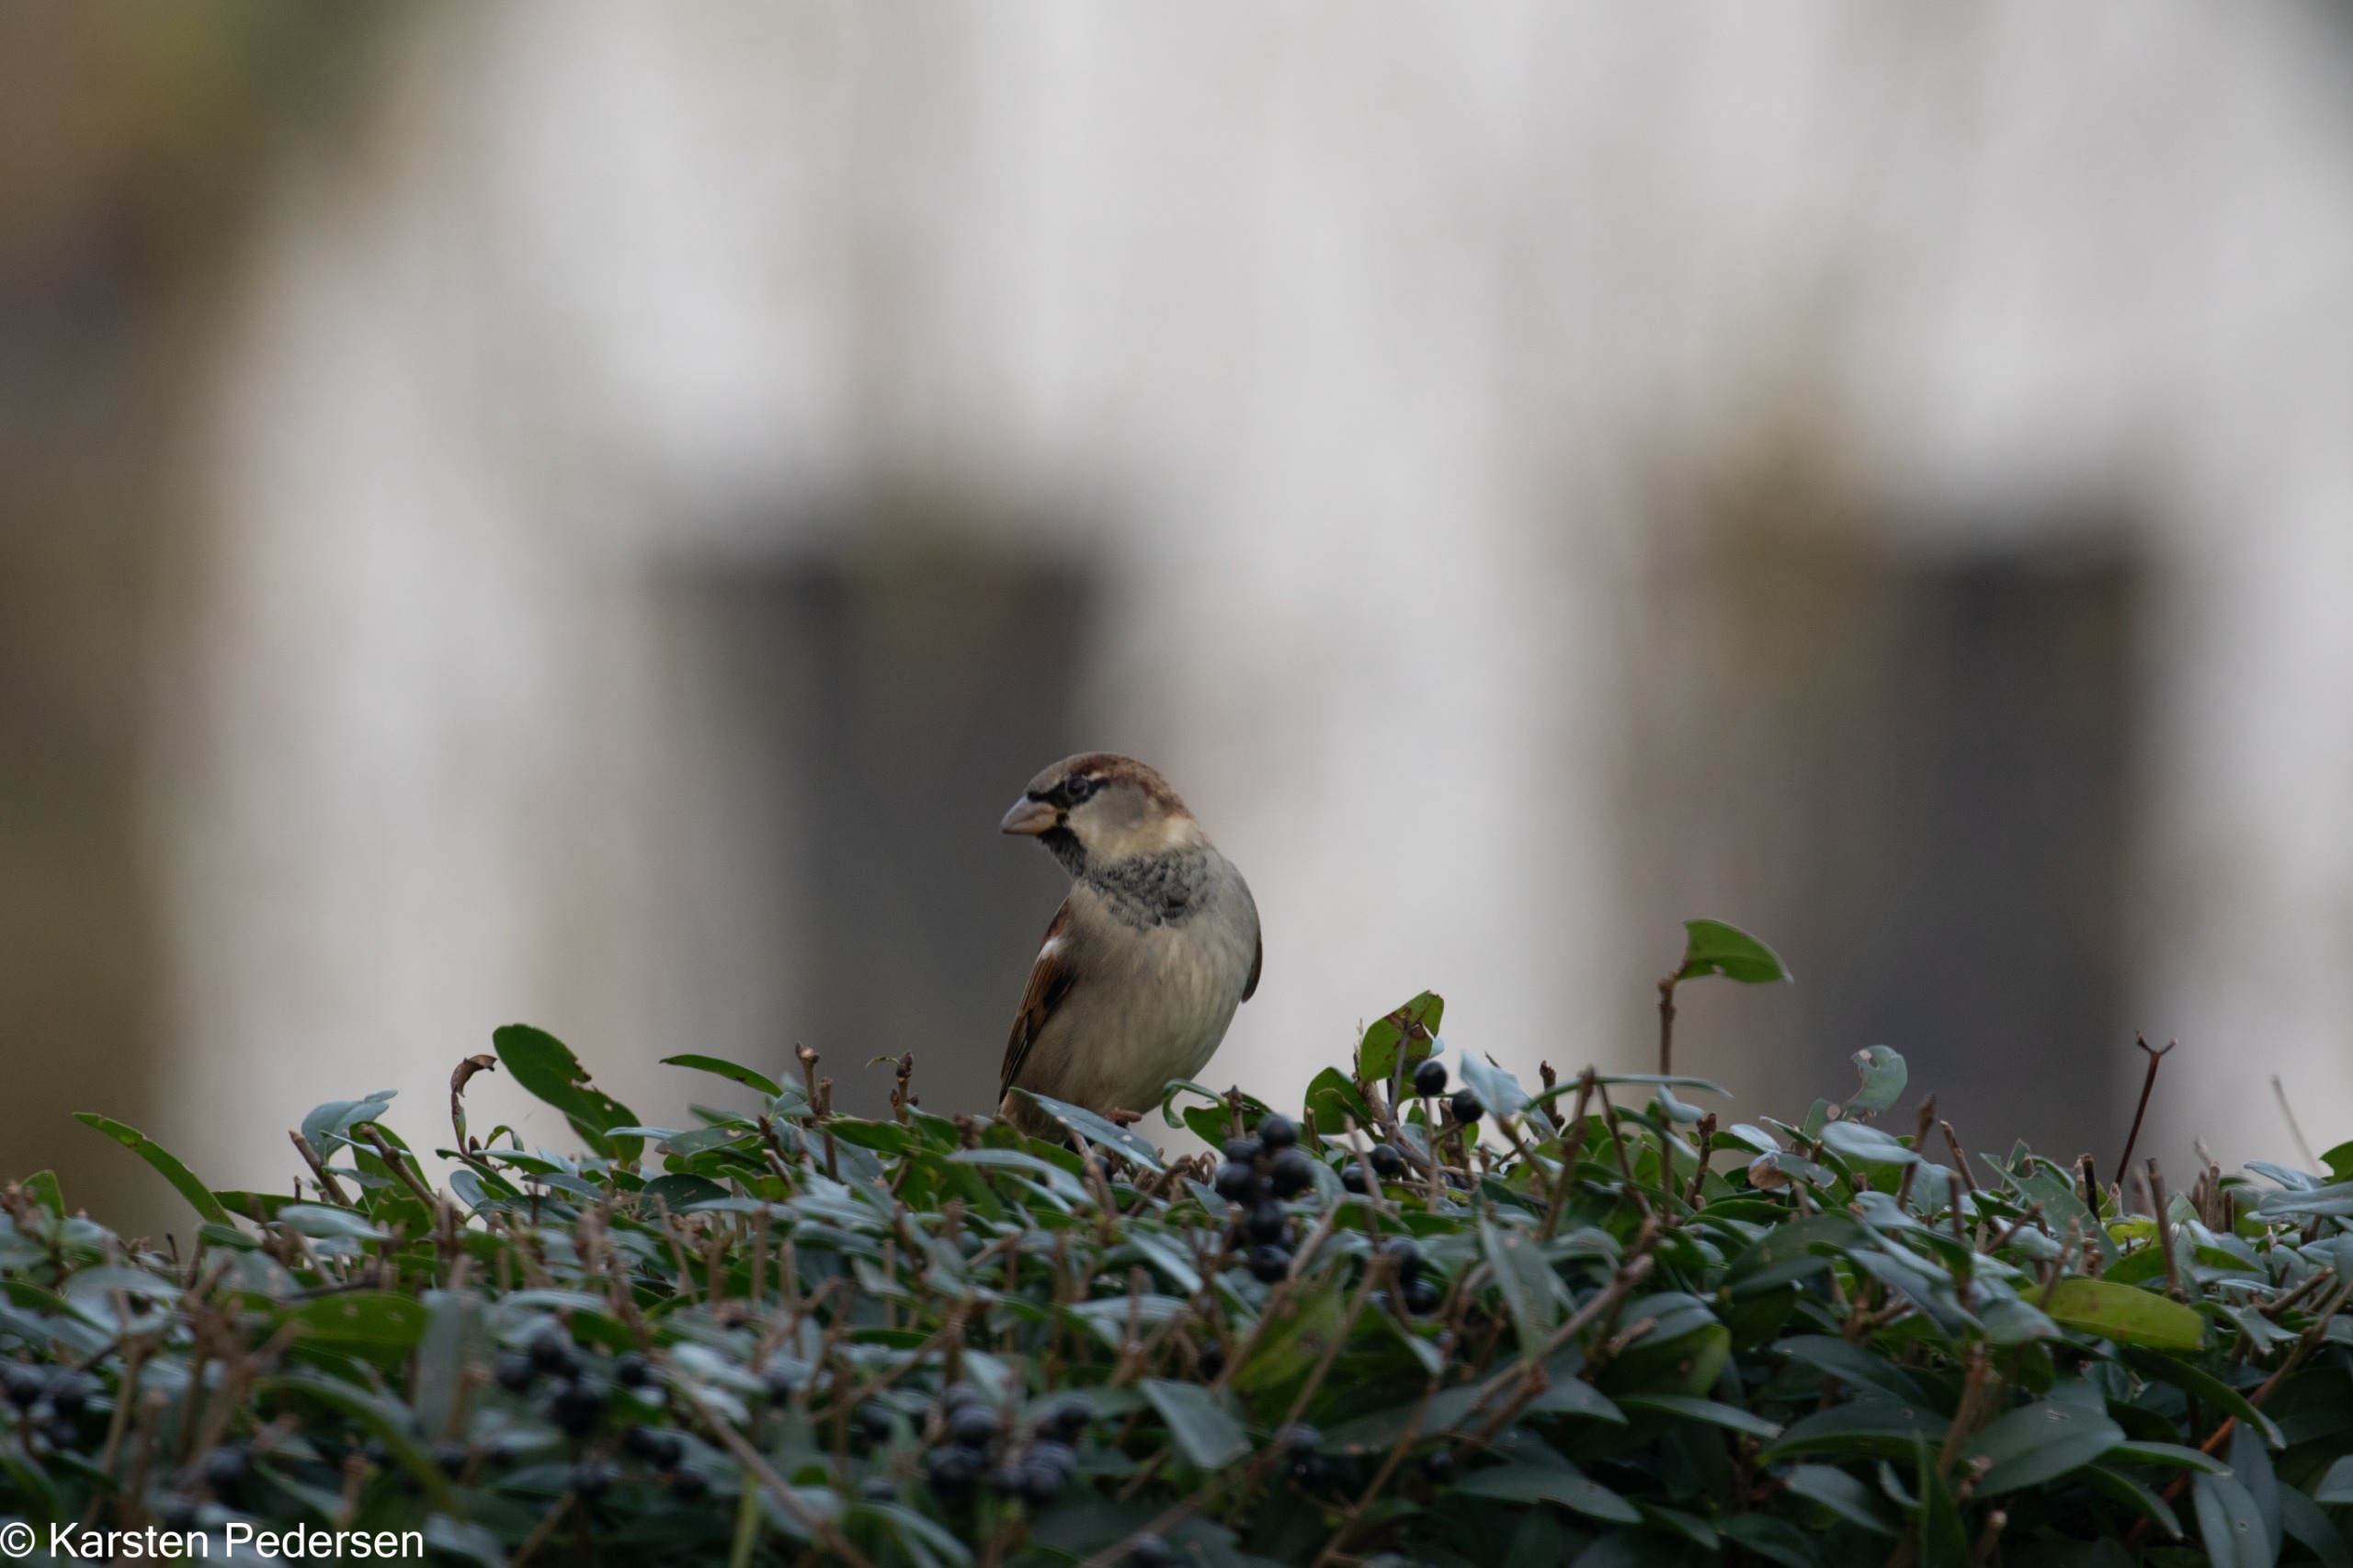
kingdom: Animalia
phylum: Chordata
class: Aves
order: Passeriformes
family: Passeridae
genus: Passer
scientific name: Passer domesticus
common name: Gråspurv
